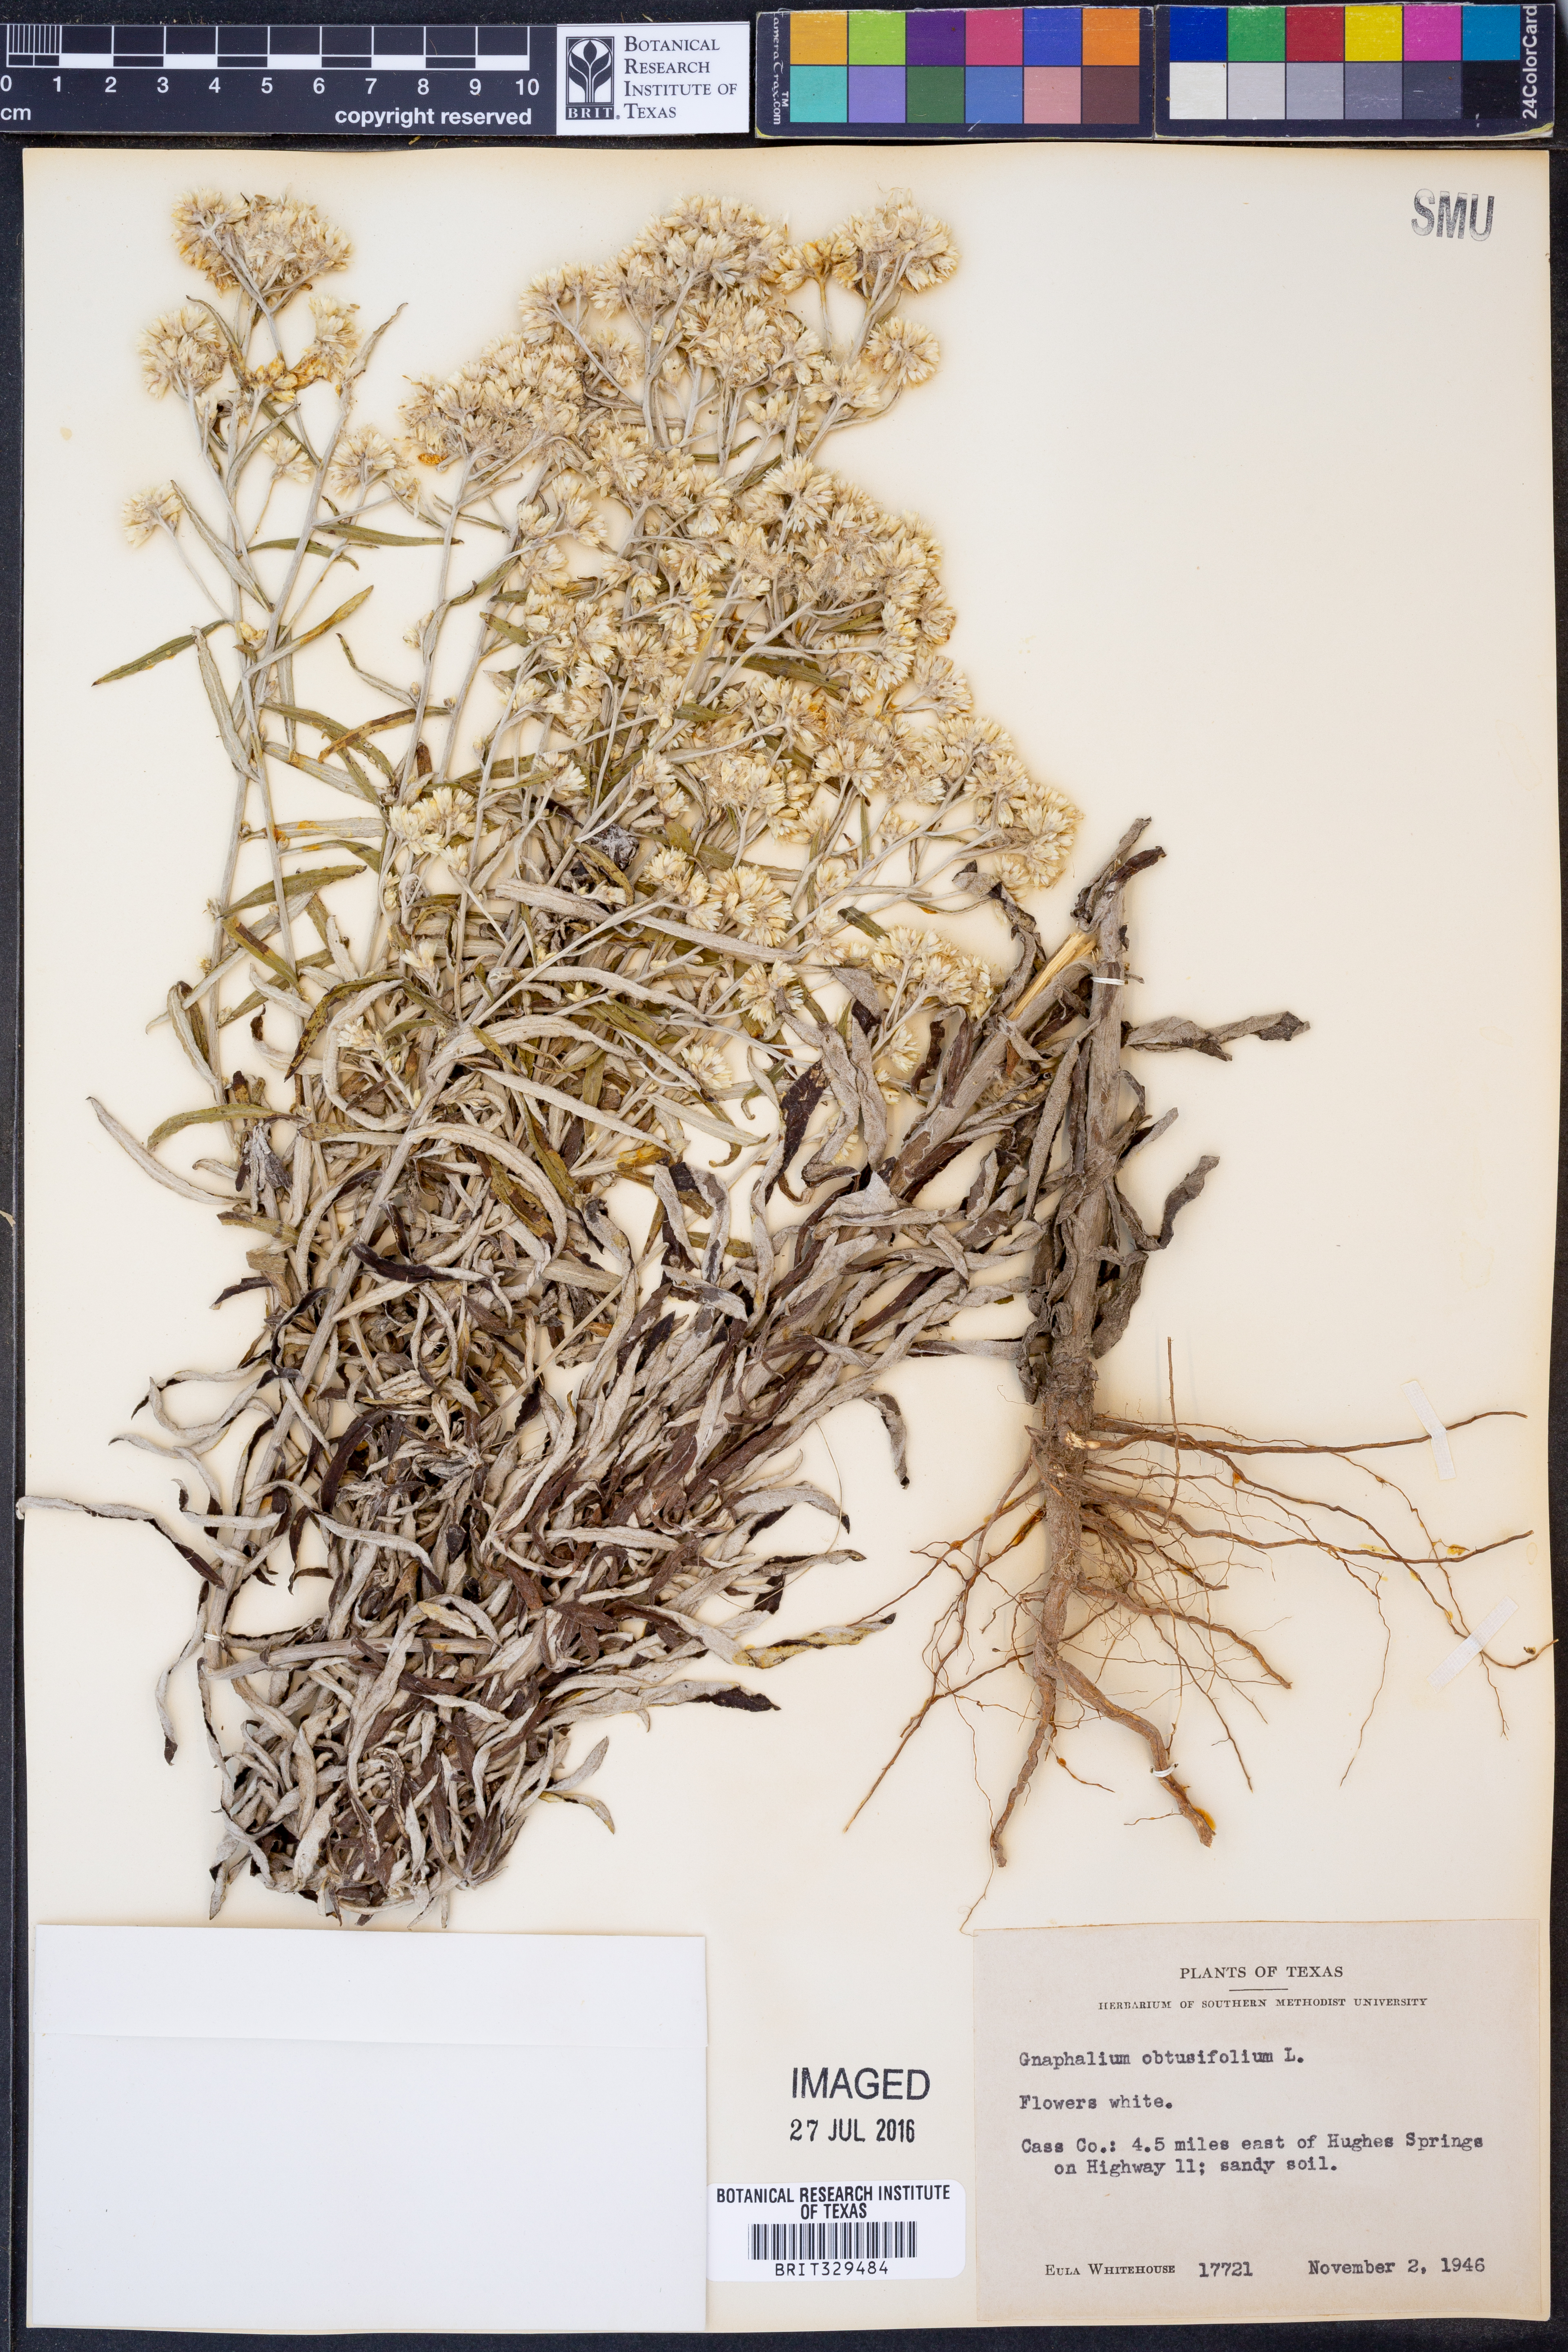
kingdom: Plantae
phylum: Tracheophyta
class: Magnoliopsida
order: Asterales
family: Asteraceae
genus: Pseudognaphalium
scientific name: Pseudognaphalium obtusifolium
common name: Eastern rabbit-tobacco
